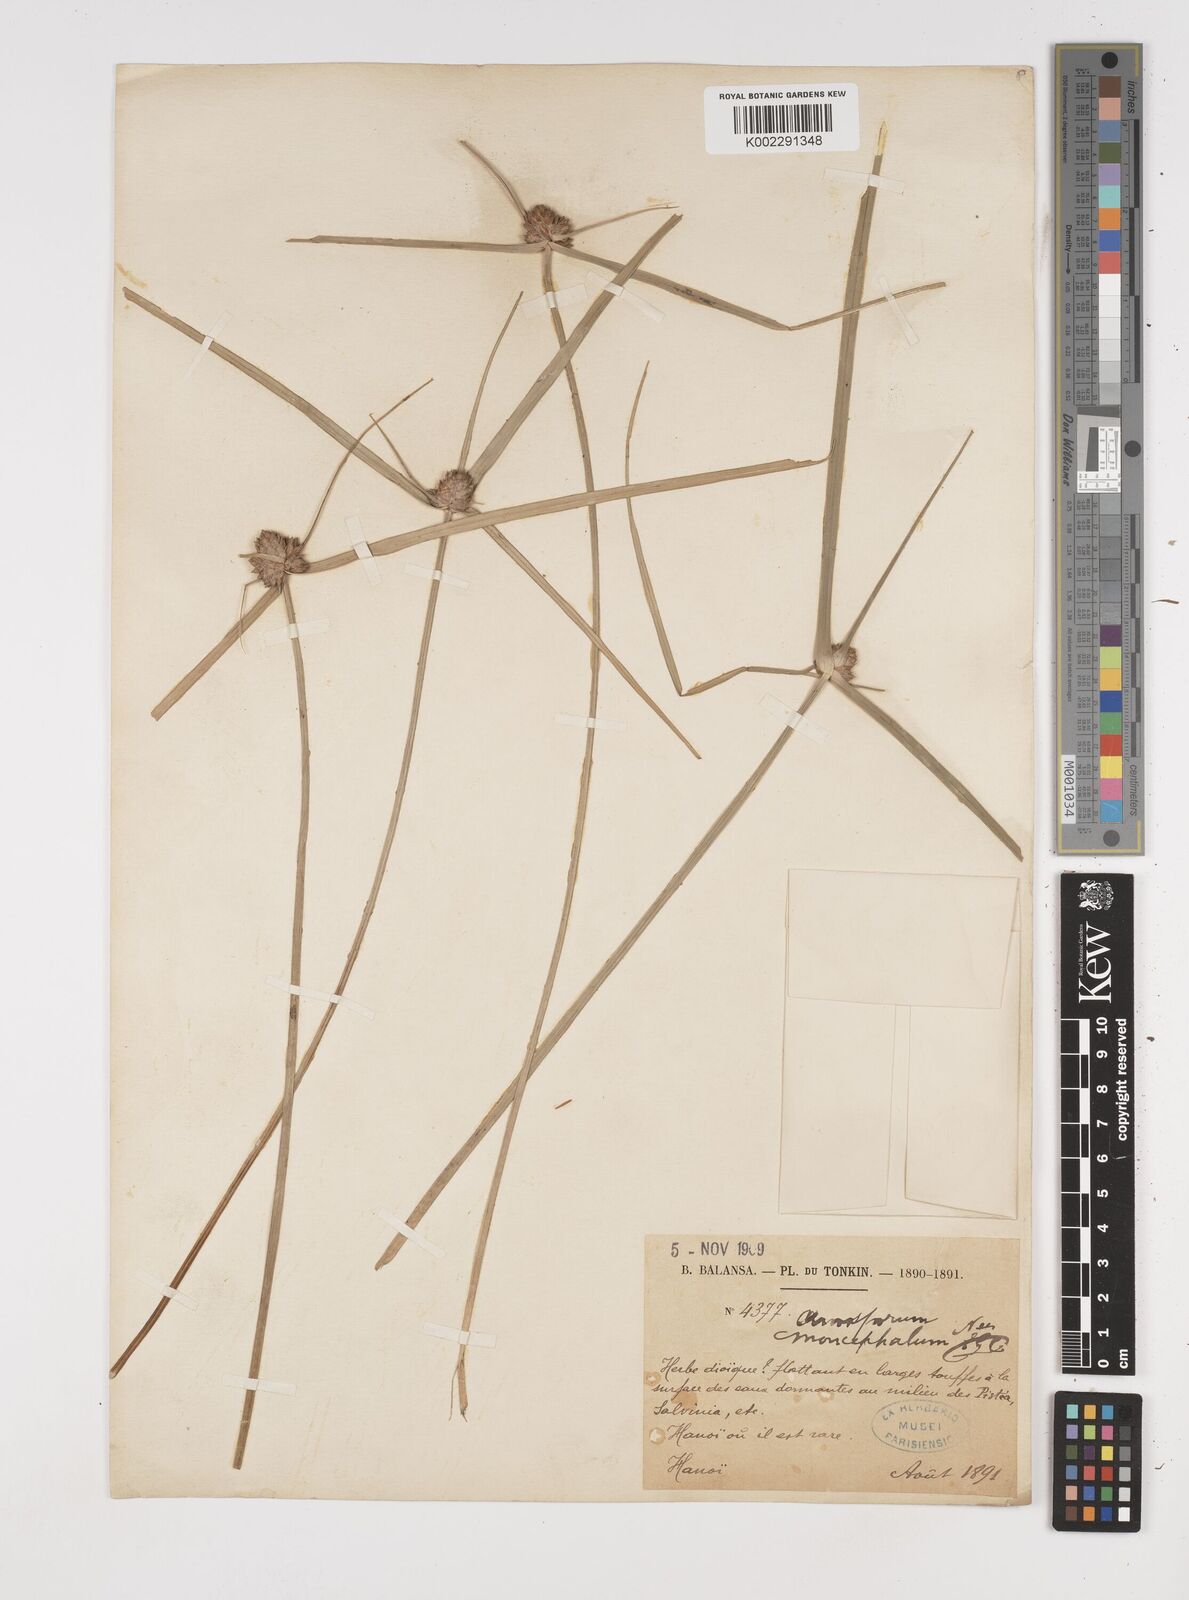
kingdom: Plantae
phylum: Tracheophyta
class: Liliopsida
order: Poales
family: Cyperaceae
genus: Cyperus
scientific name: Cyperus cephalotes
